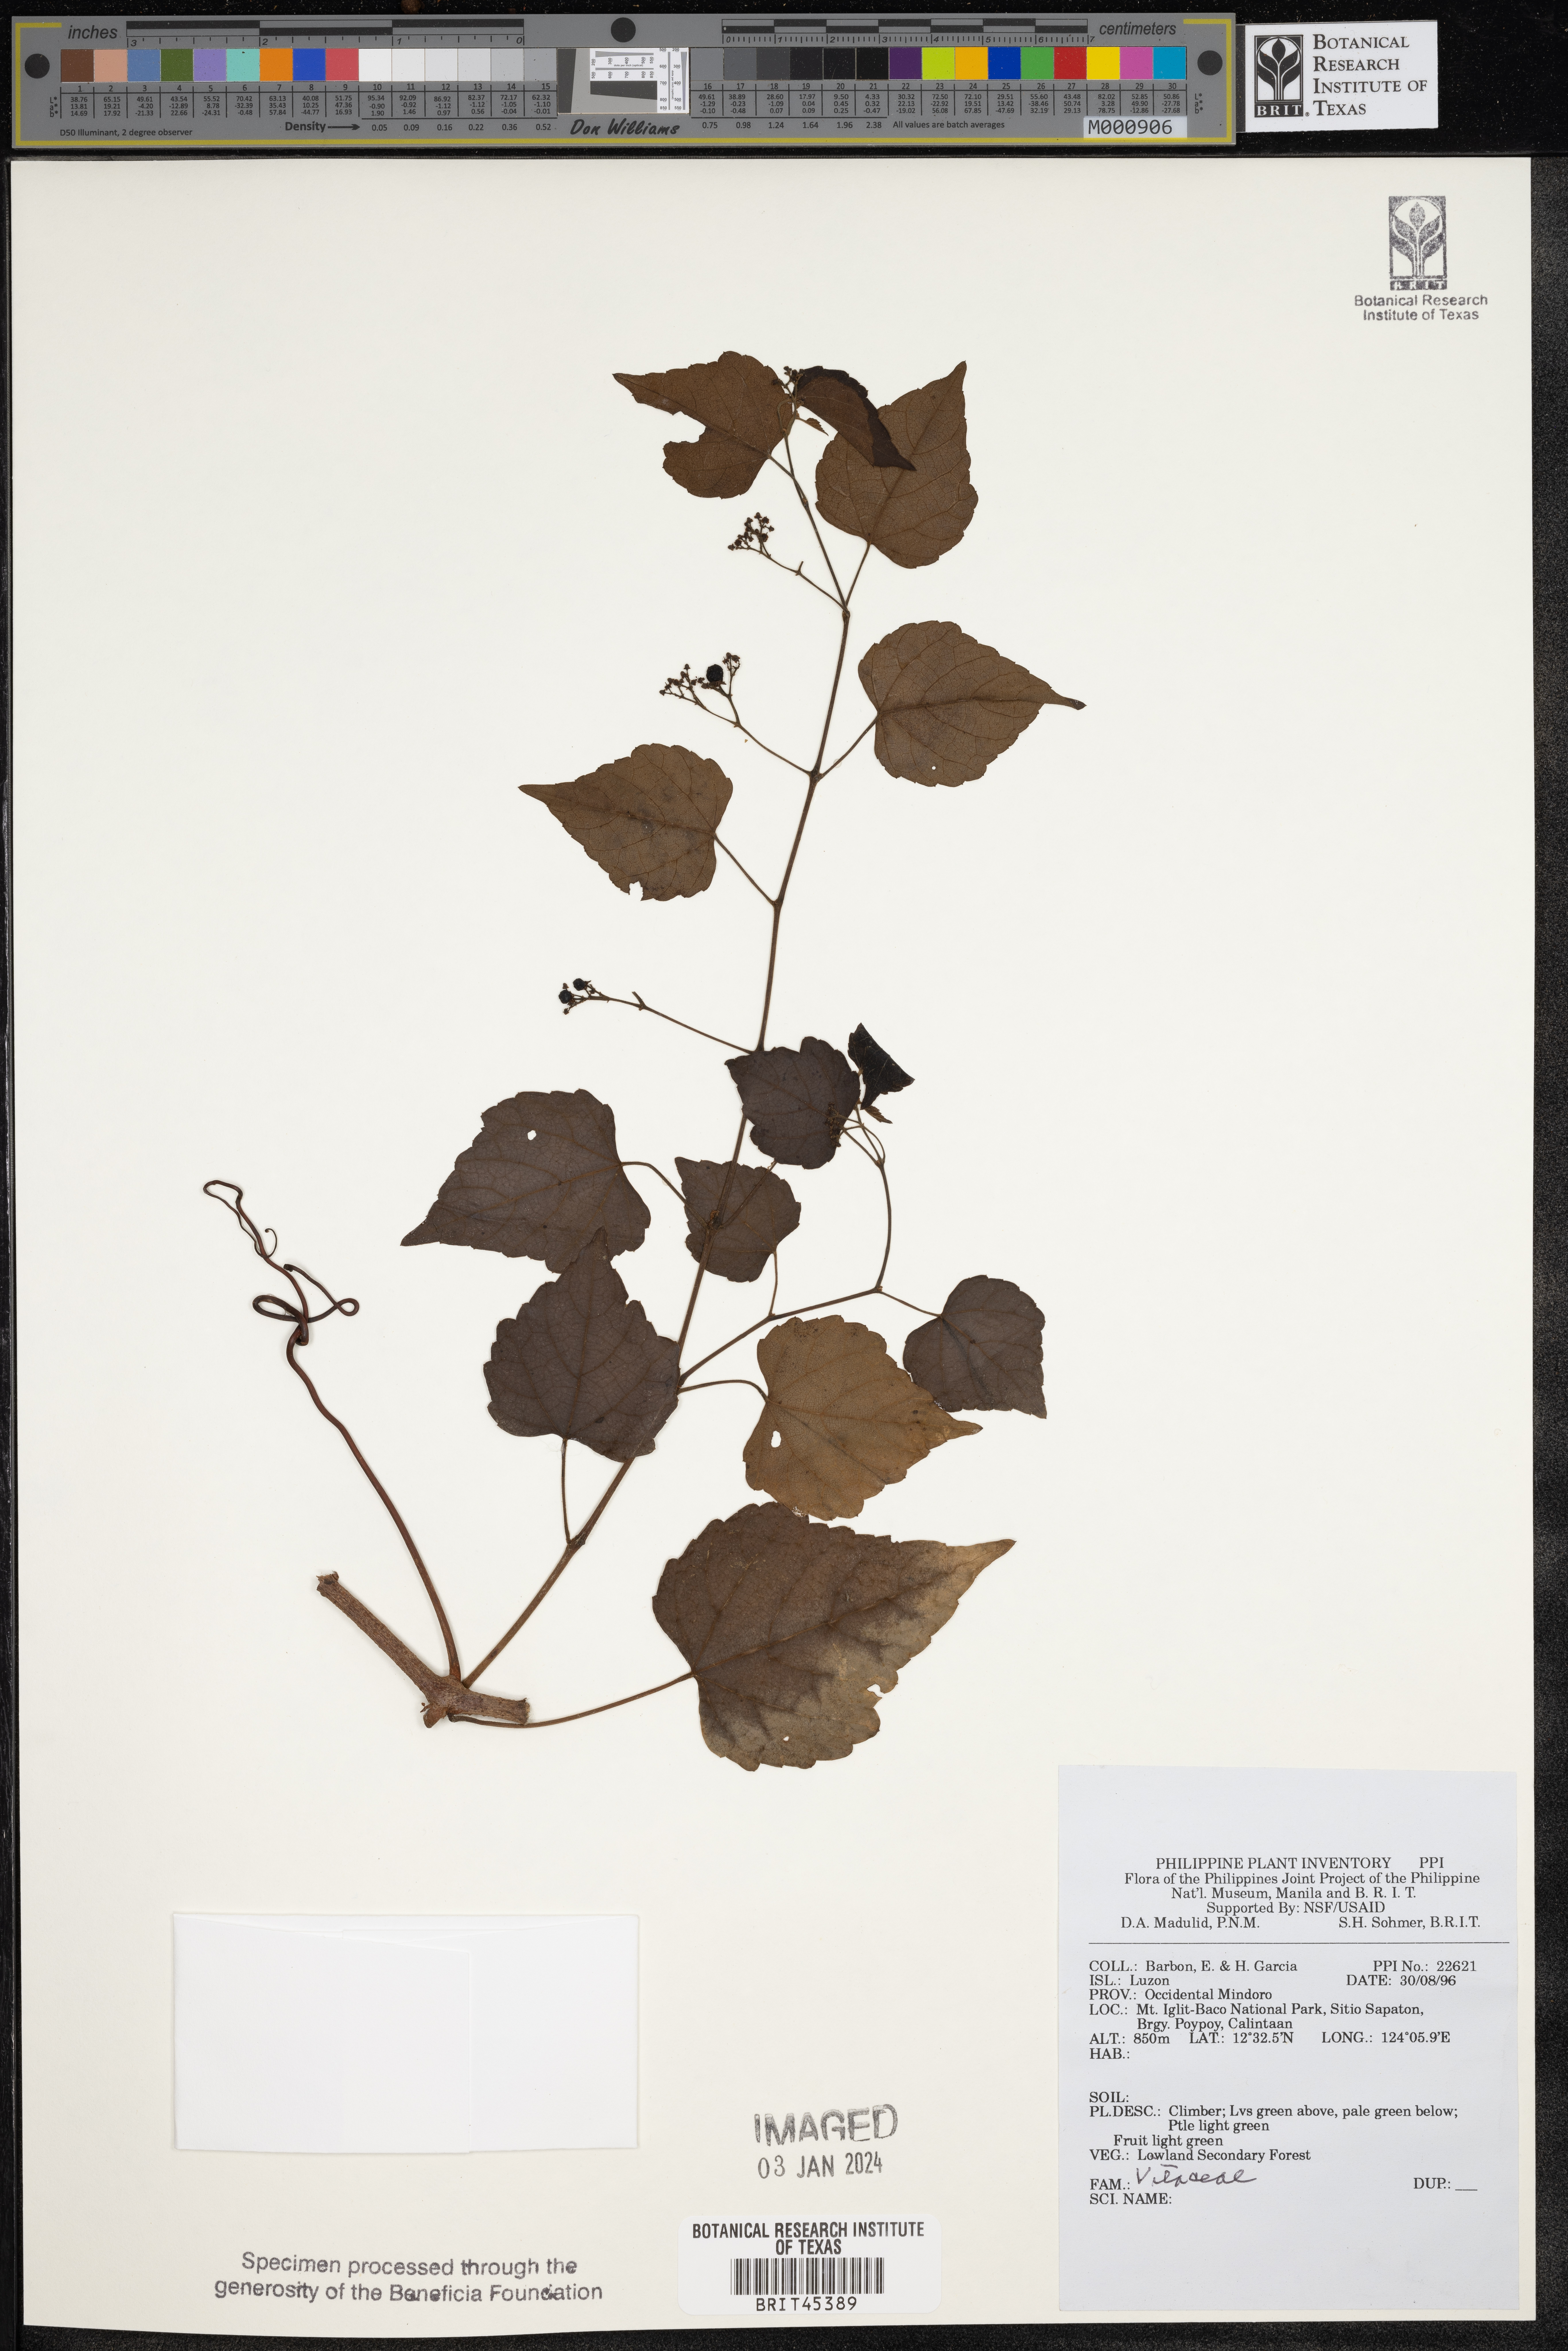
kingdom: Plantae
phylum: Tracheophyta
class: Magnoliopsida
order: Vitales
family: Vitaceae
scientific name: Vitaceae
